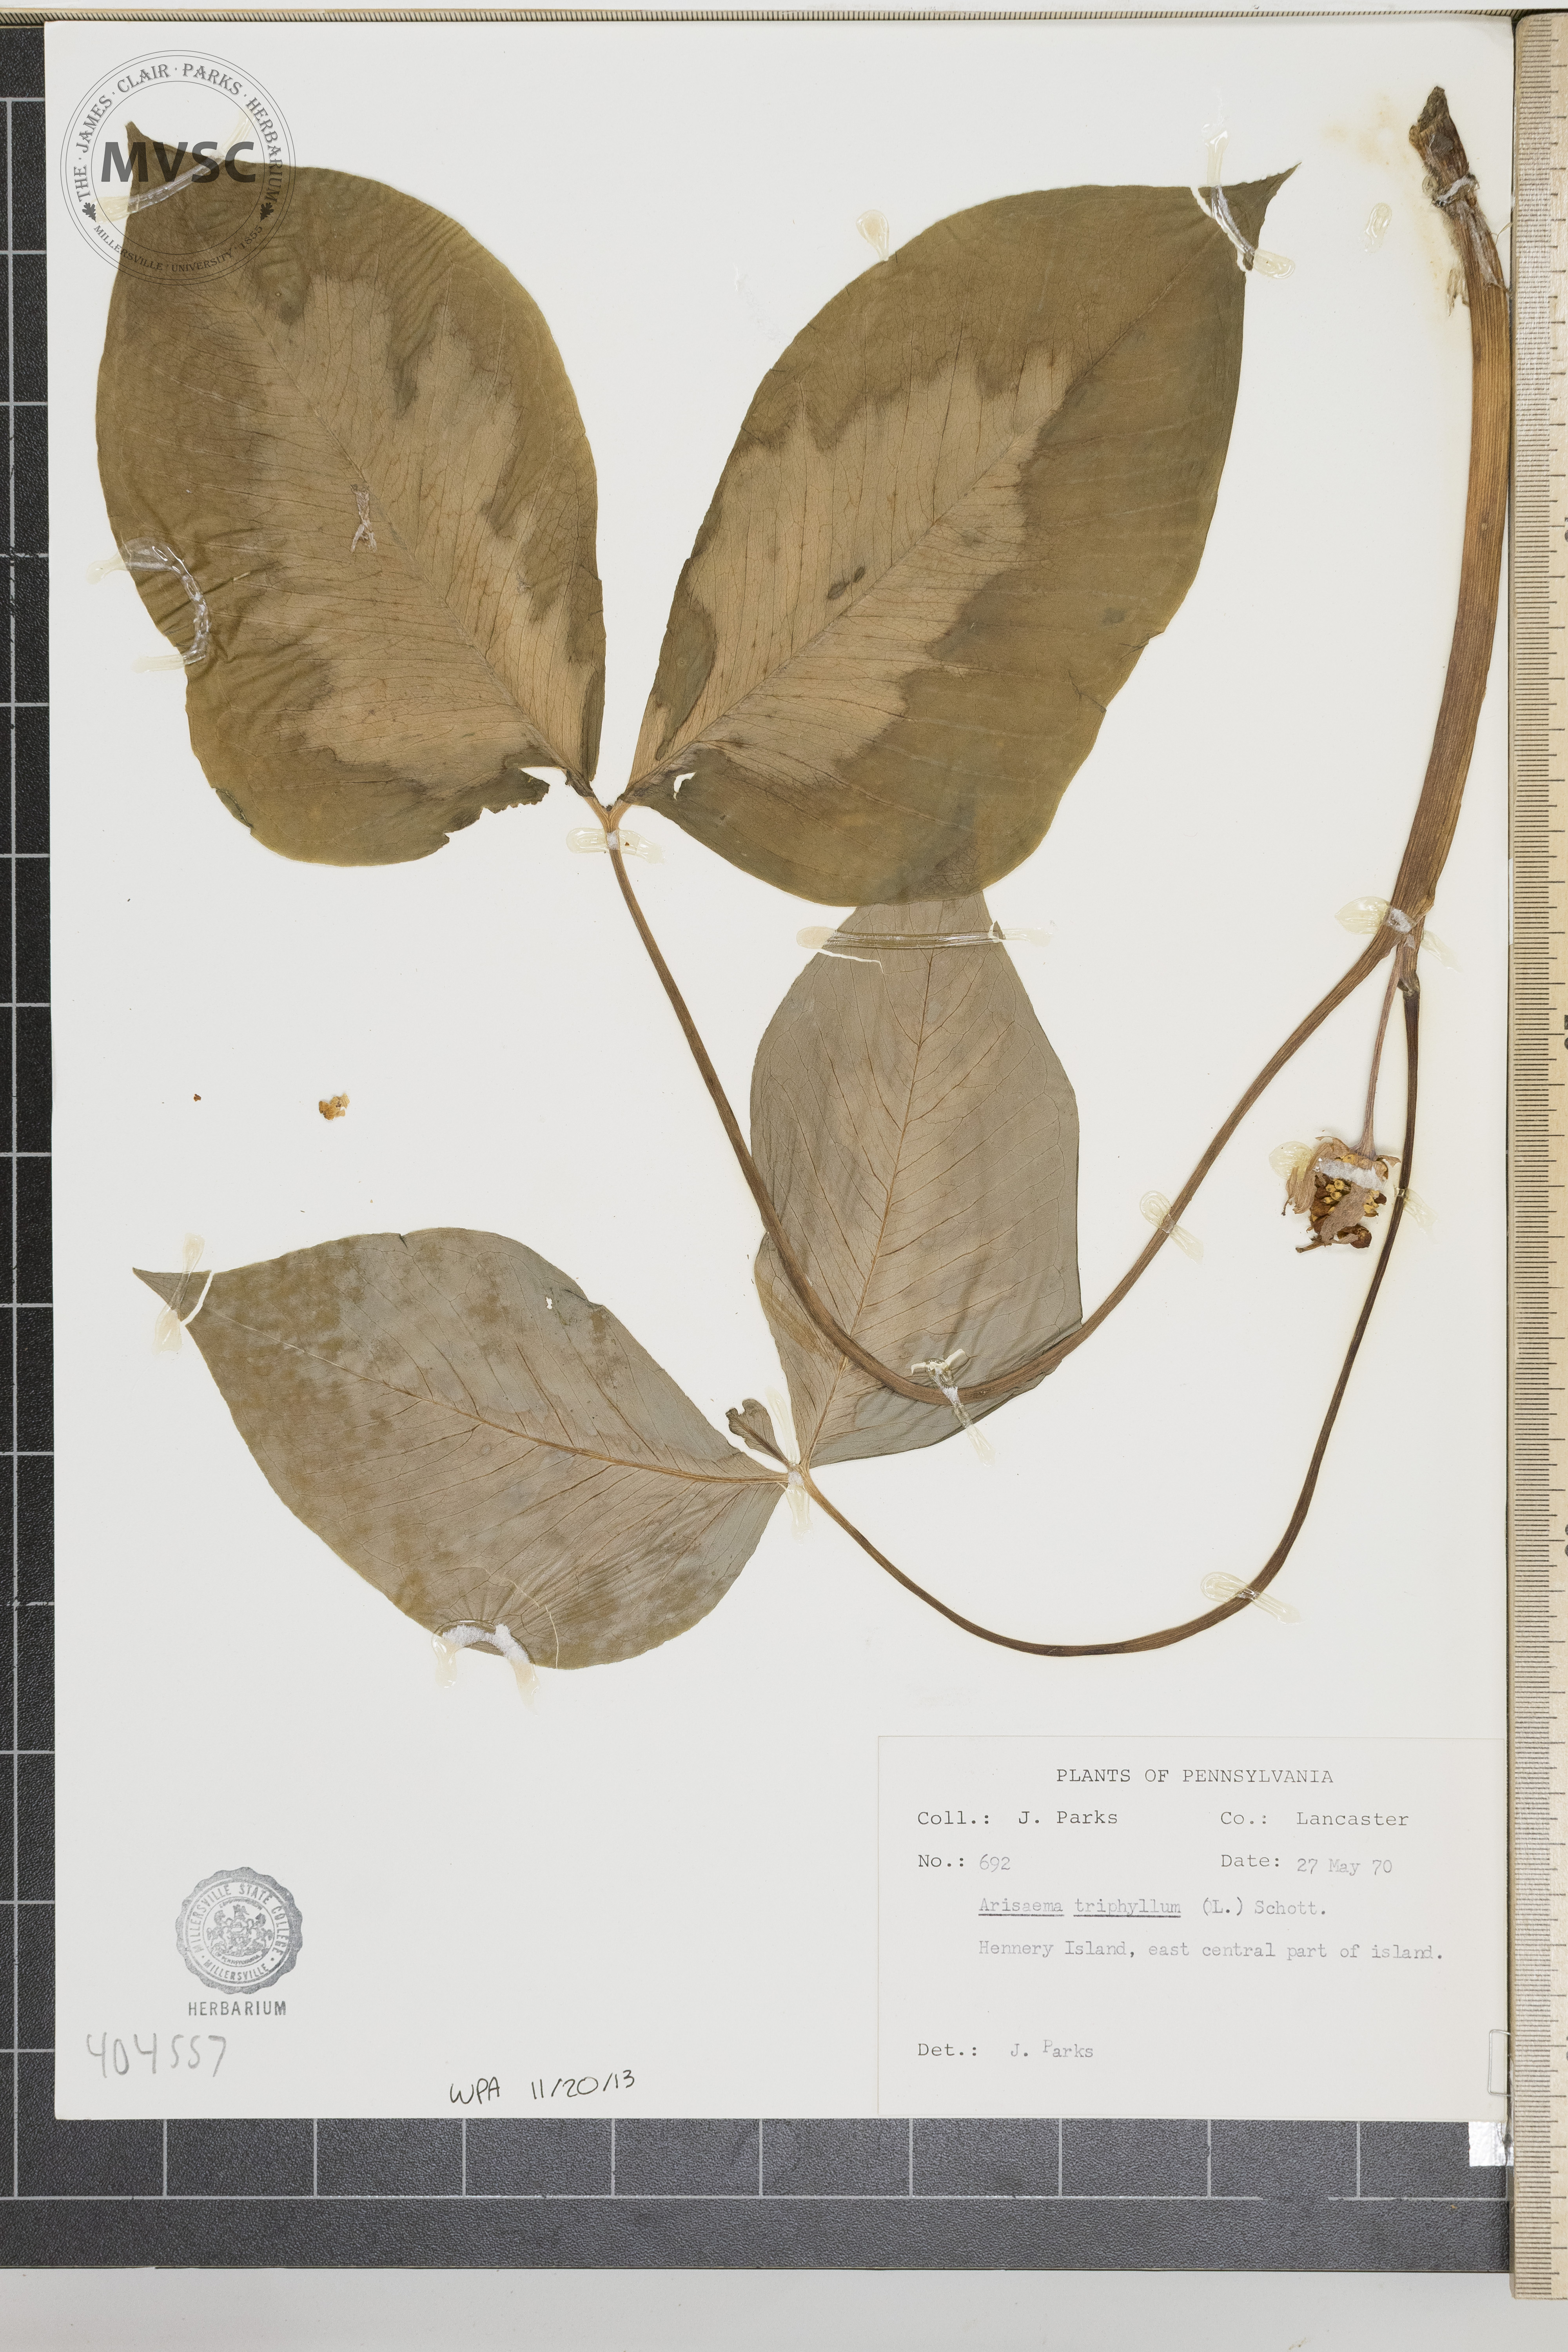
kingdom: Plantae
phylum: Tracheophyta
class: Liliopsida
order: Alismatales
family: Araceae
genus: Arisaema
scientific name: Arisaema triphyllum
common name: Jack-in-the-pulpit
